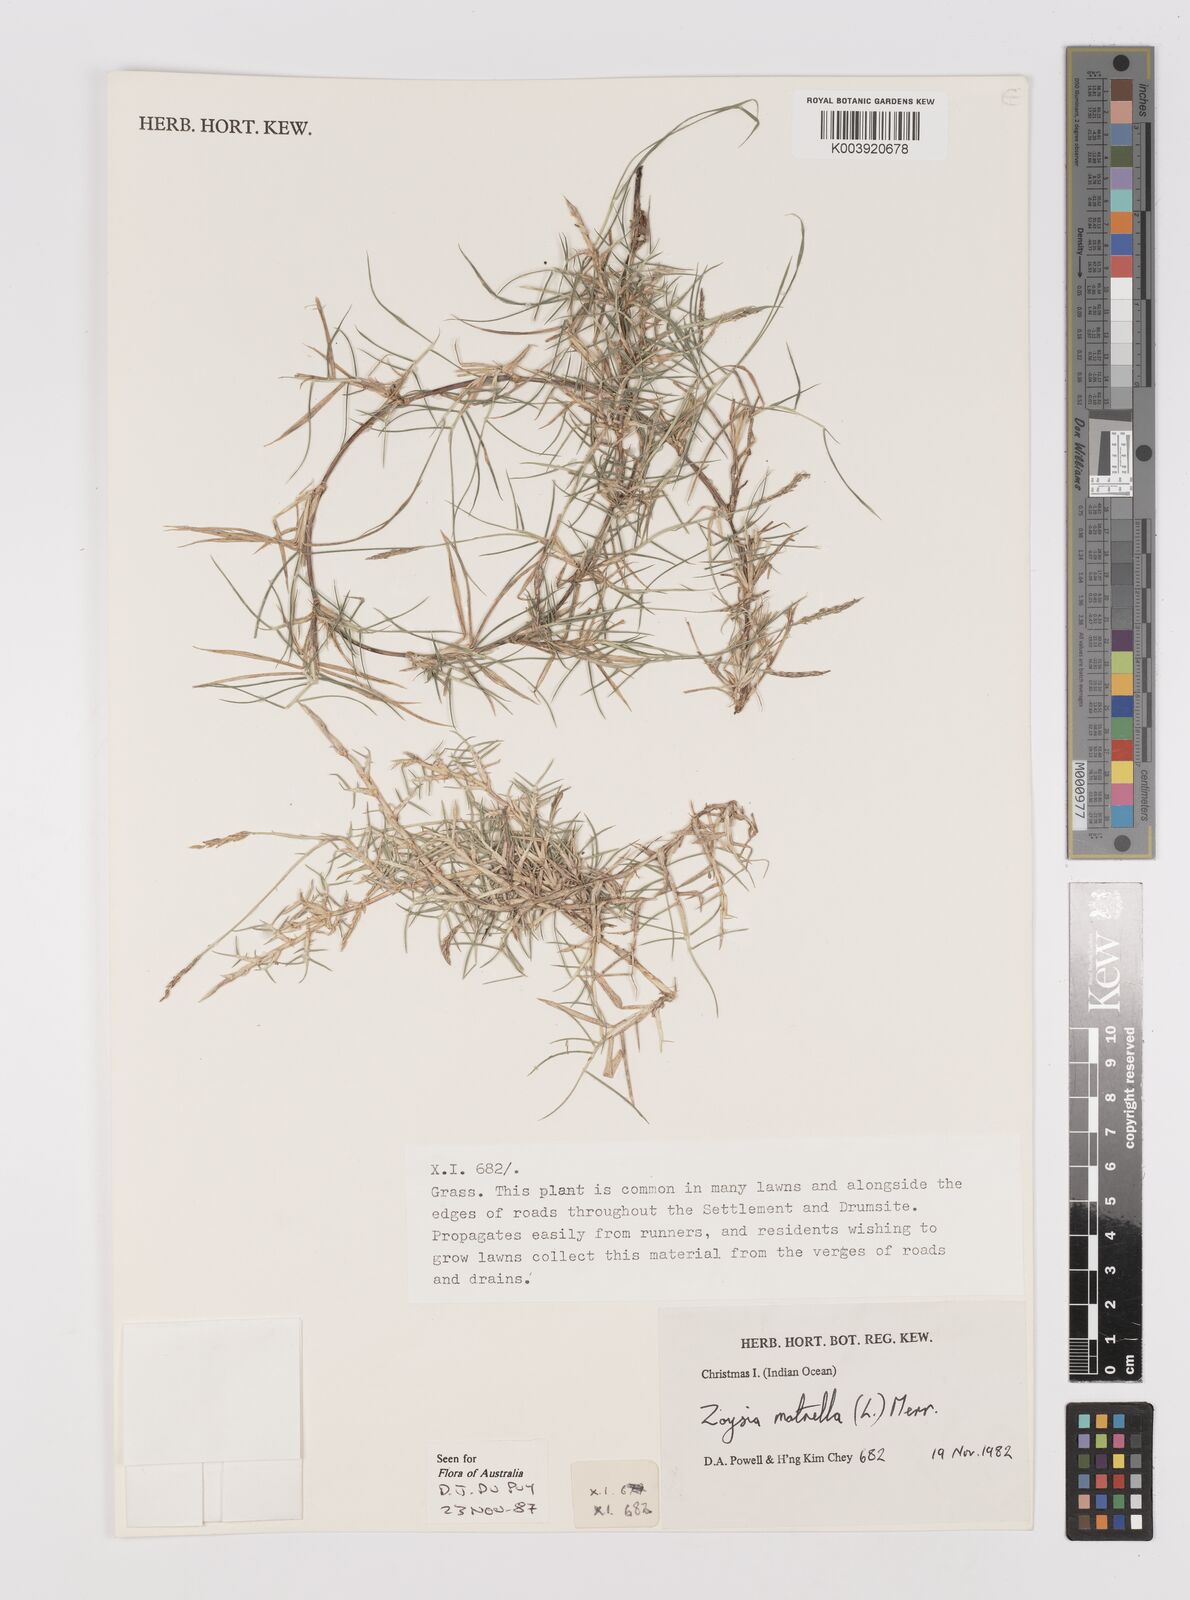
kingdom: Plantae
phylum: Tracheophyta
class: Liliopsida
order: Poales
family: Poaceae
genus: Zoysia
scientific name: Zoysia matrella
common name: Manila grass
